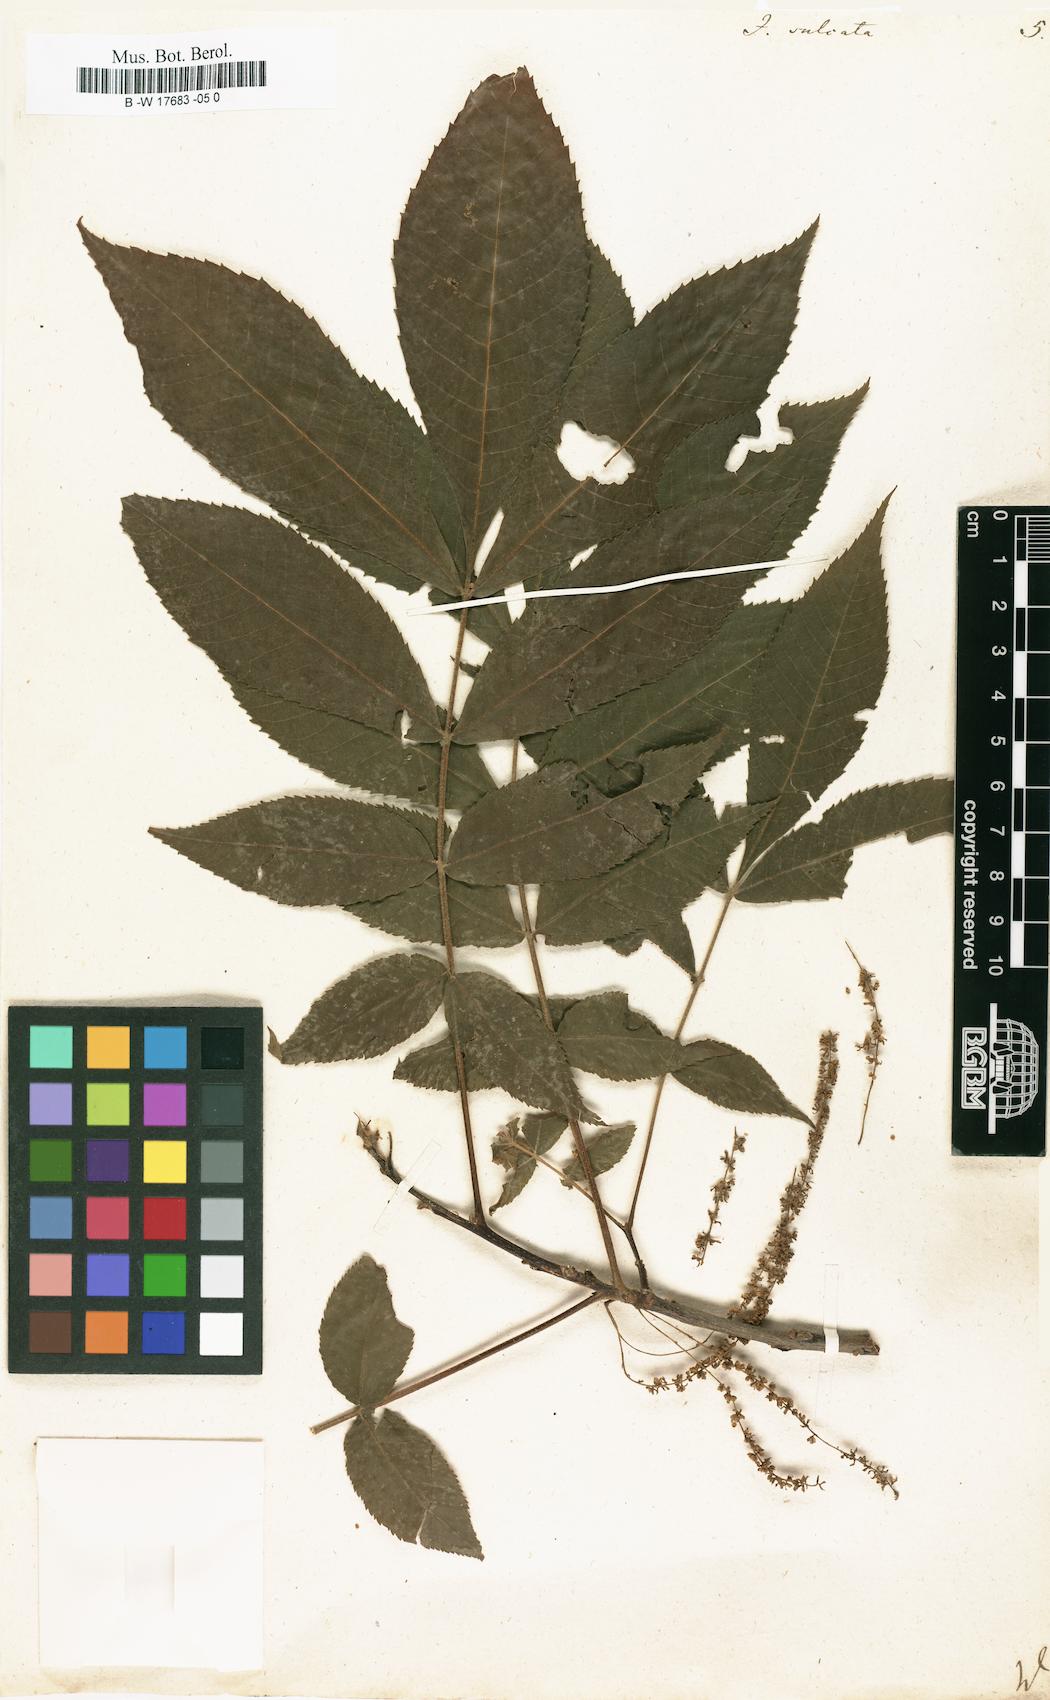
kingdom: Plantae
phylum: Tracheophyta
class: Magnoliopsida
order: Fagales
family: Juglandaceae
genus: Carya
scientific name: Carya laciniosa
